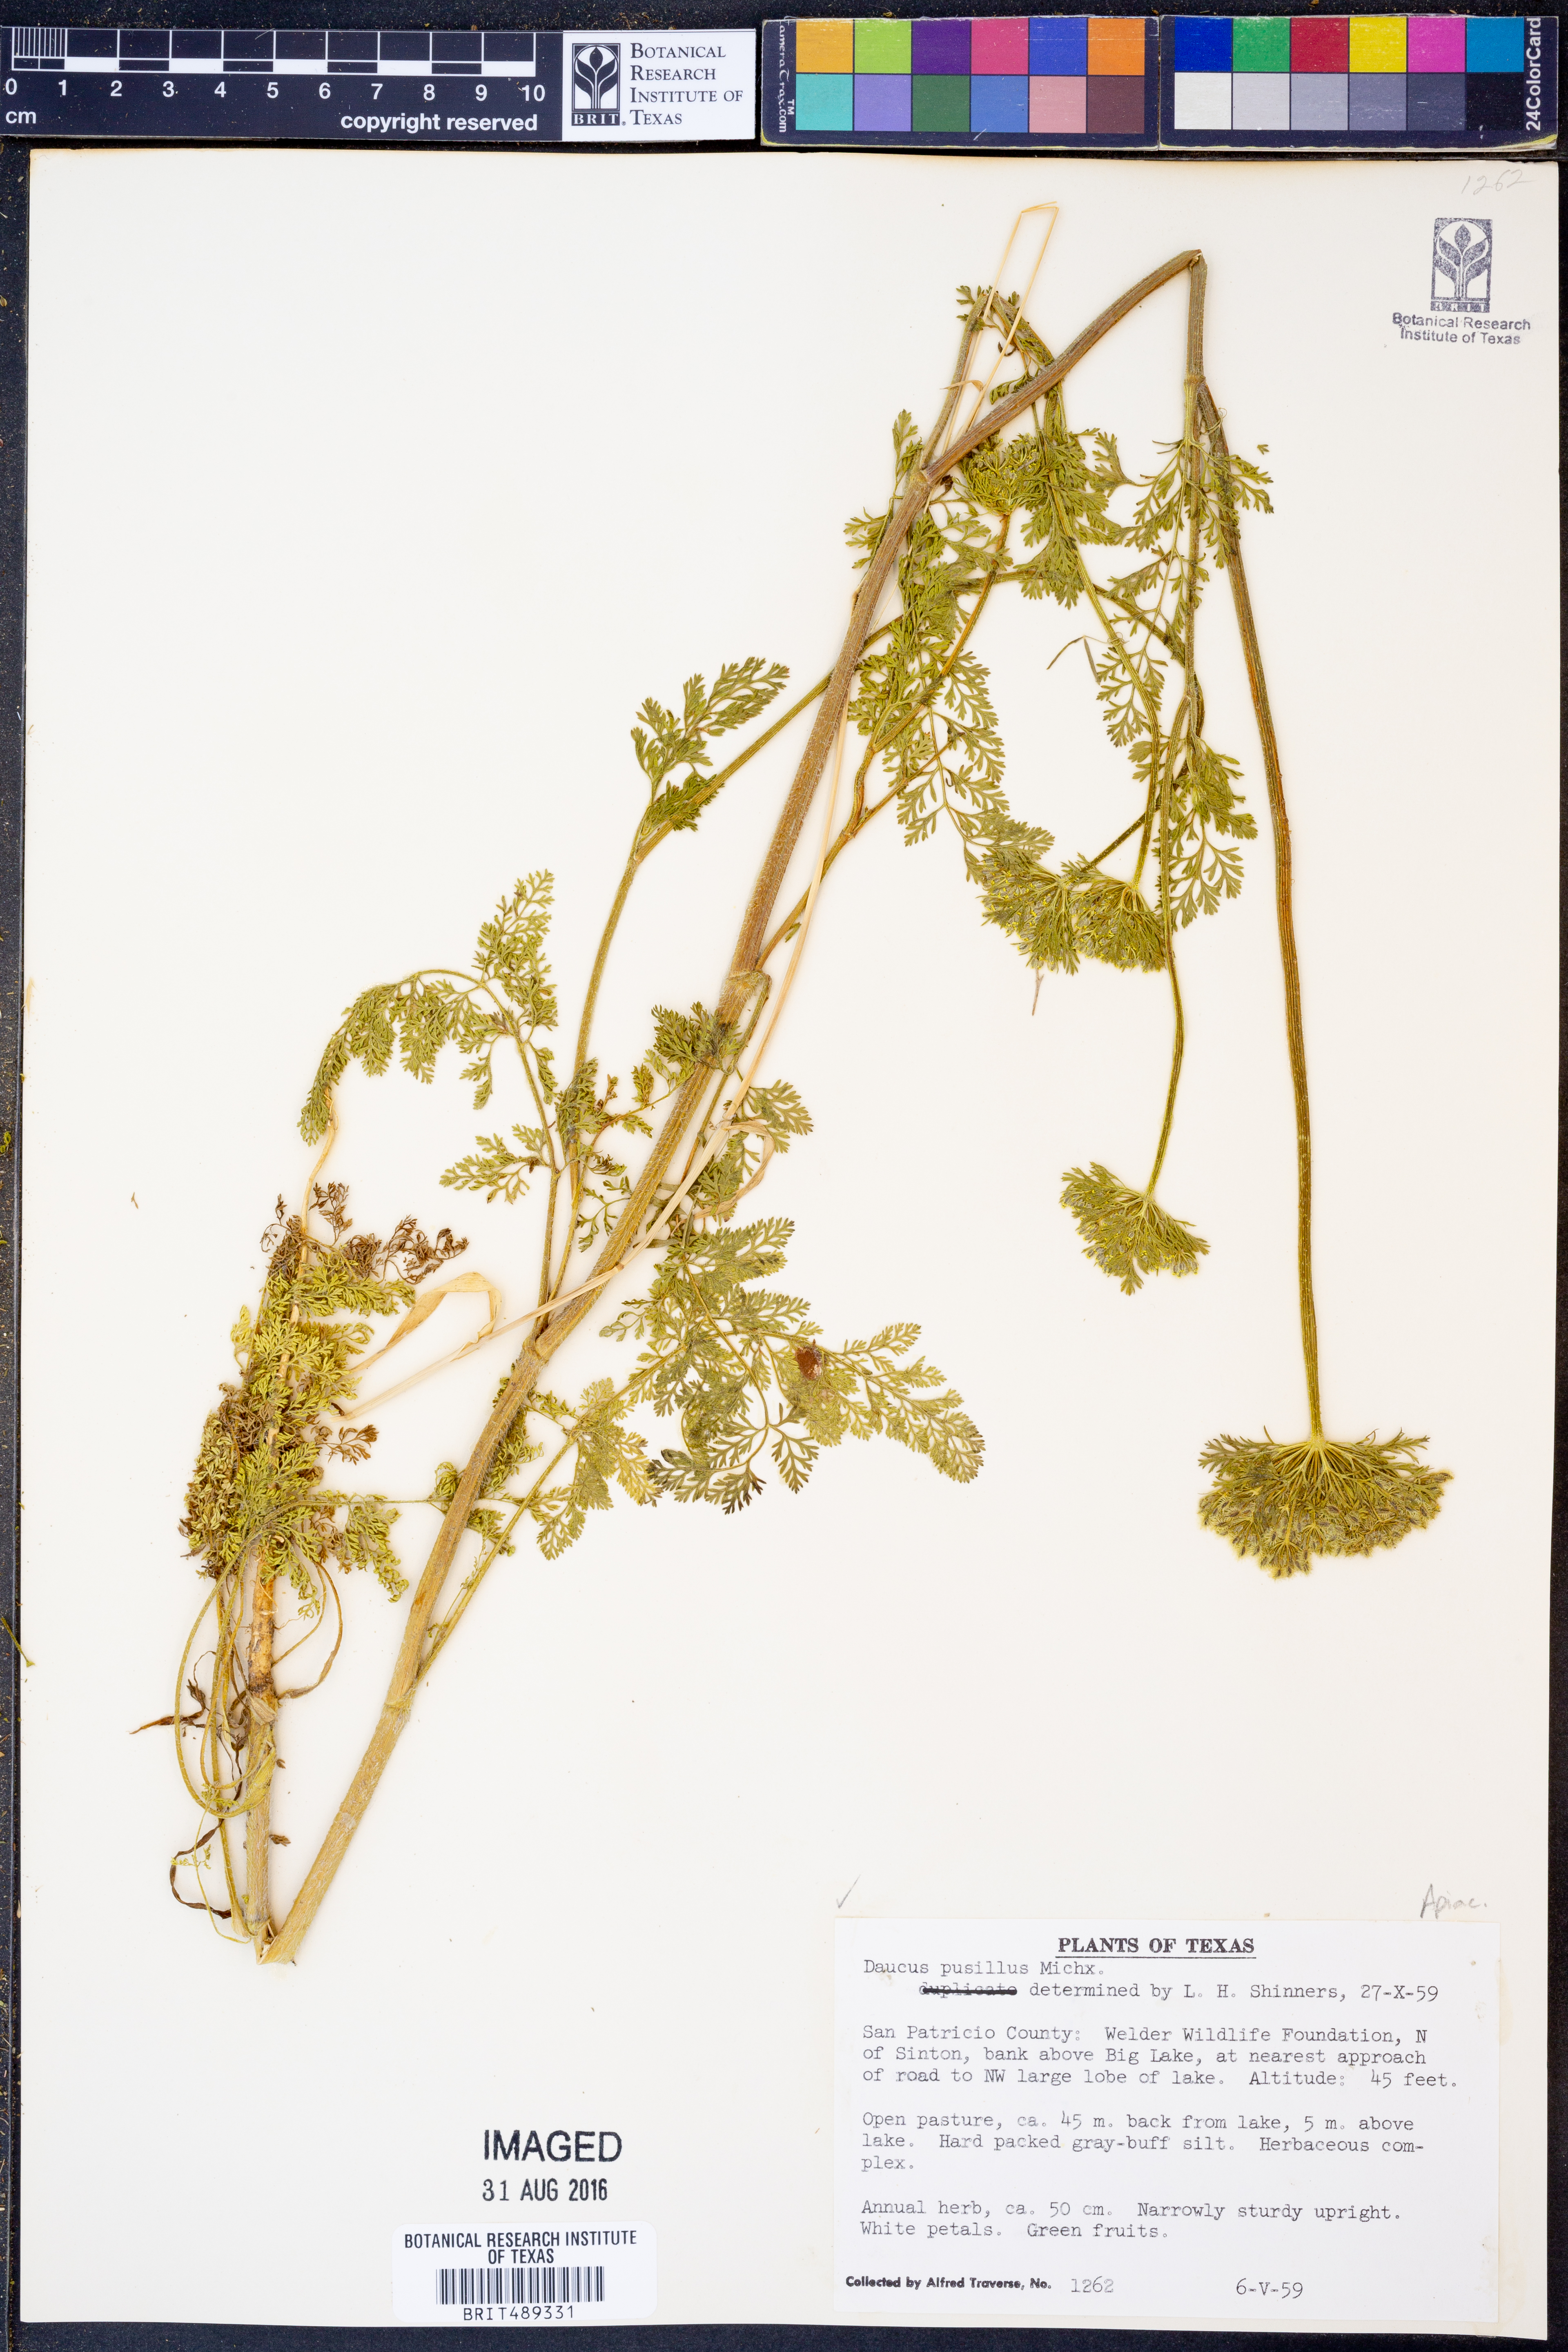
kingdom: Plantae
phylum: Tracheophyta
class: Magnoliopsida
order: Apiales
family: Apiaceae
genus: Daucus
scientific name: Daucus pusillus
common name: Southwest wild carrot
